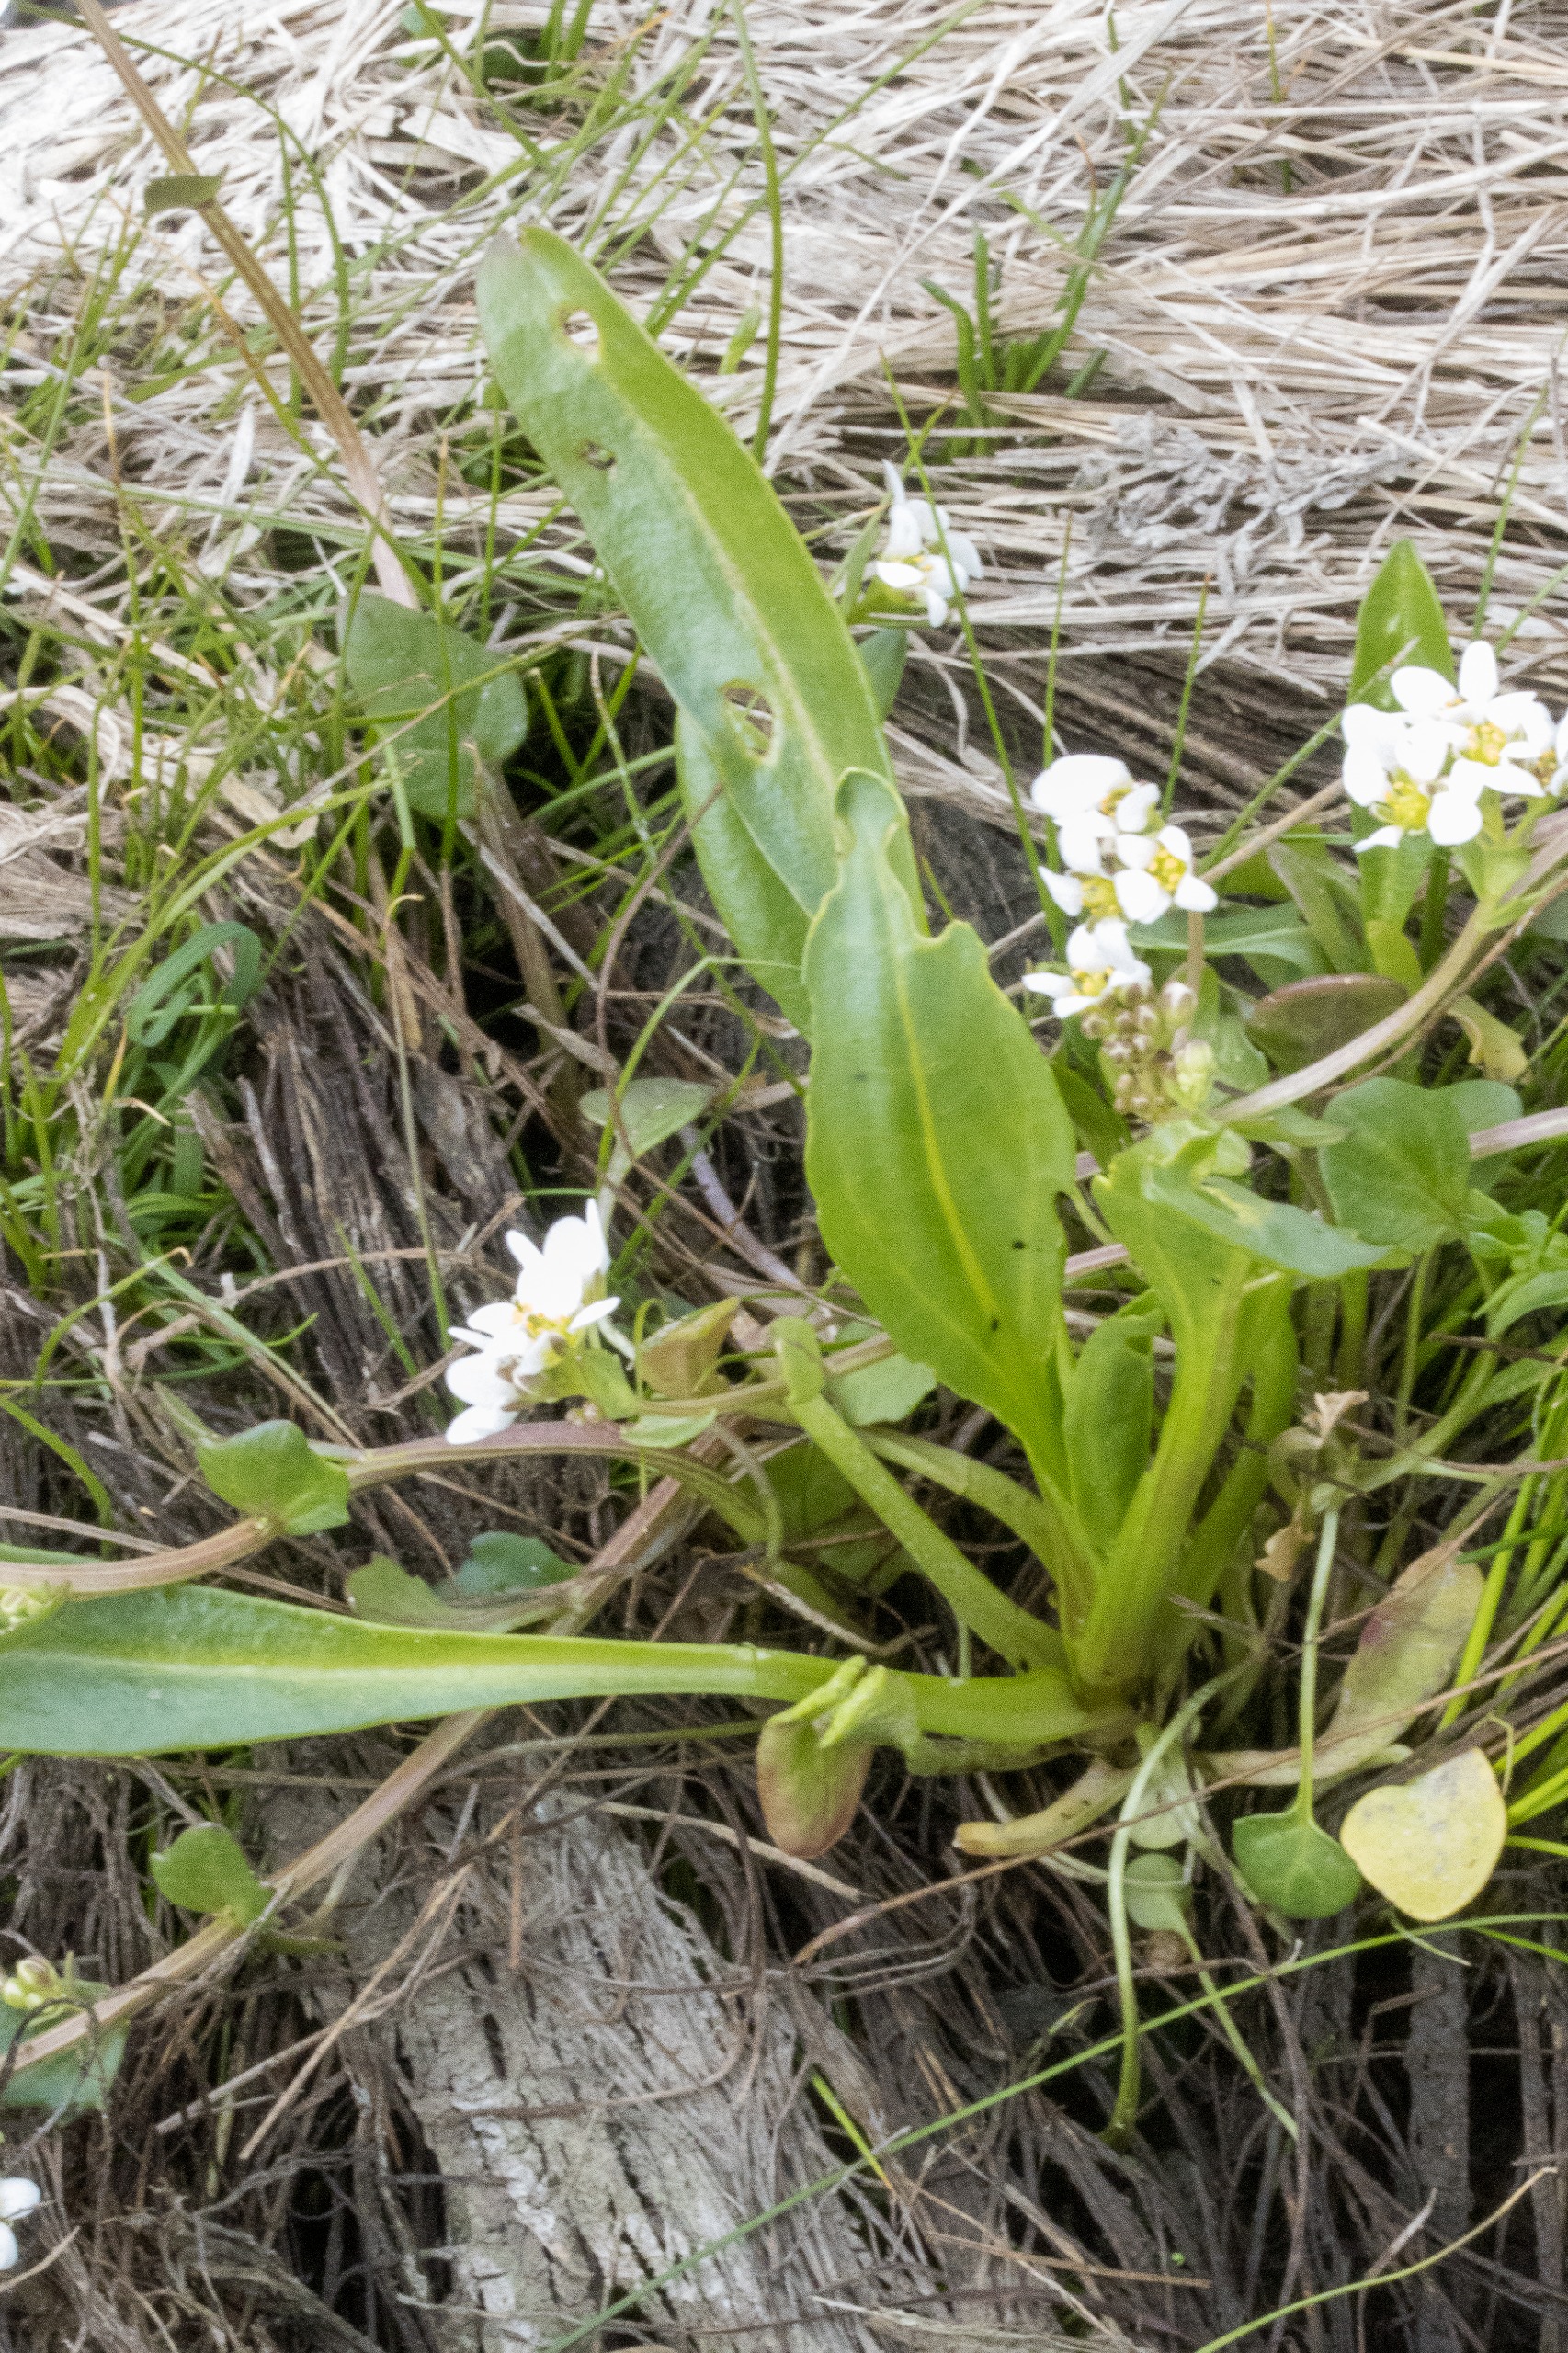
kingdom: Plantae
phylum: Tracheophyta
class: Magnoliopsida
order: Asterales
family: Asteraceae
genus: Tripolium
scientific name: Tripolium pannonicum
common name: Strandasters
